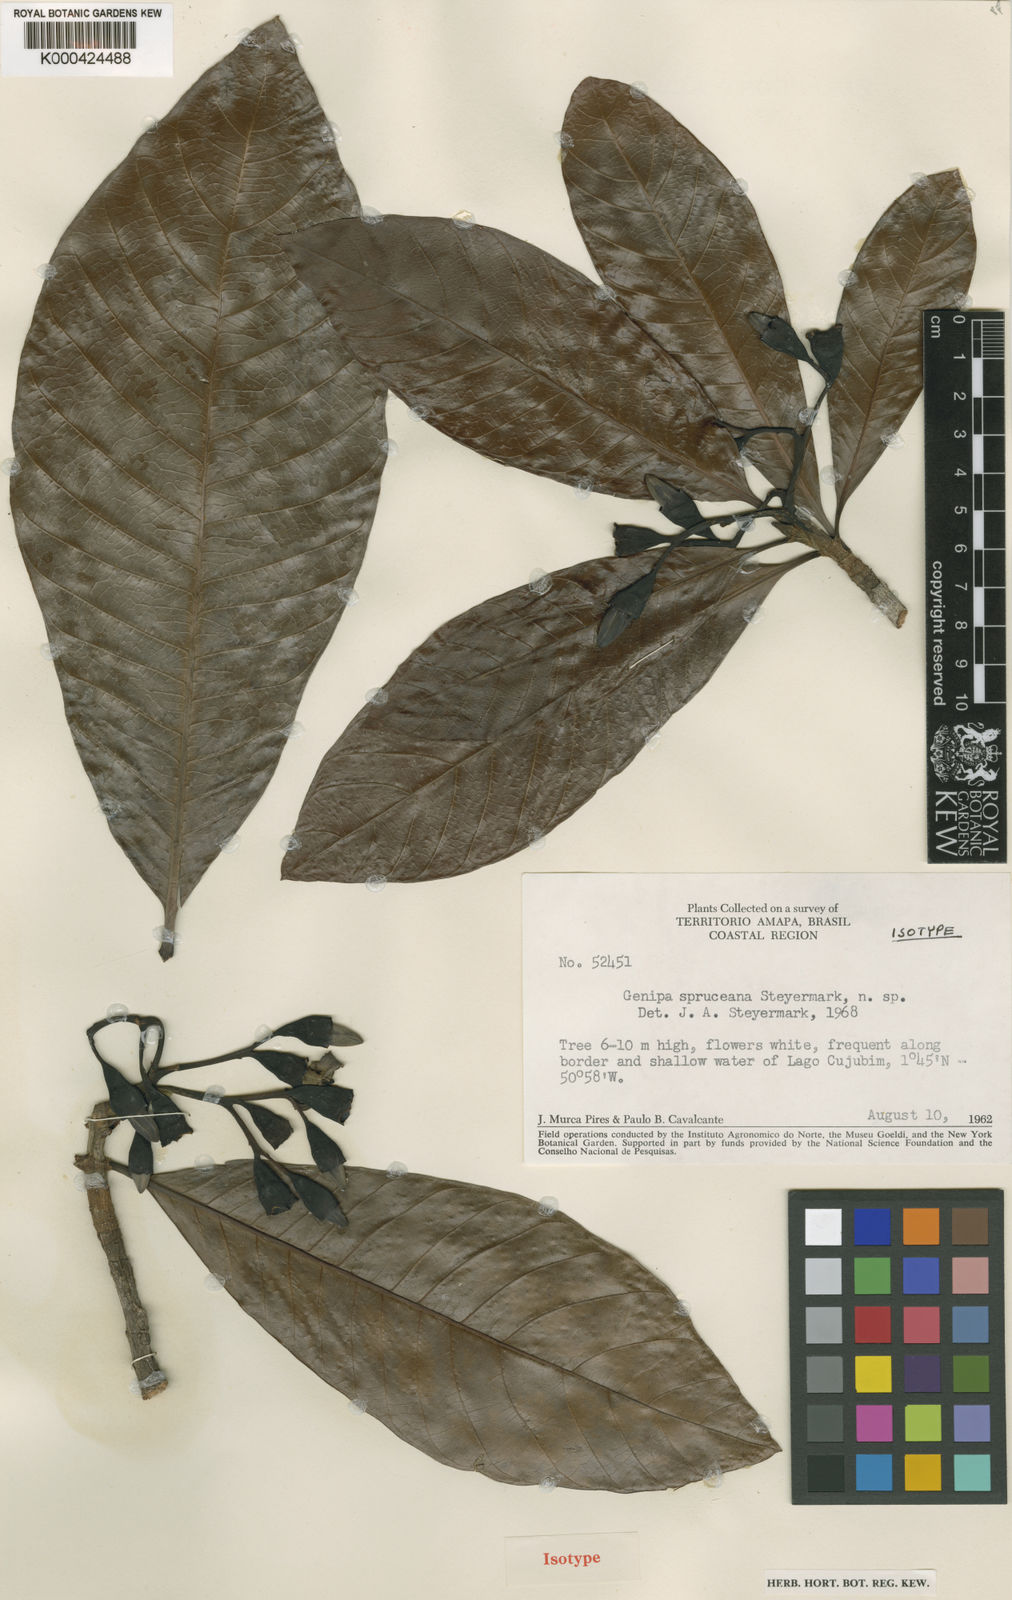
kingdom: Plantae
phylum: Tracheophyta
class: Magnoliopsida
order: Gentianales
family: Rubiaceae
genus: Genipa
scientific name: Genipa americana
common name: Genipap
